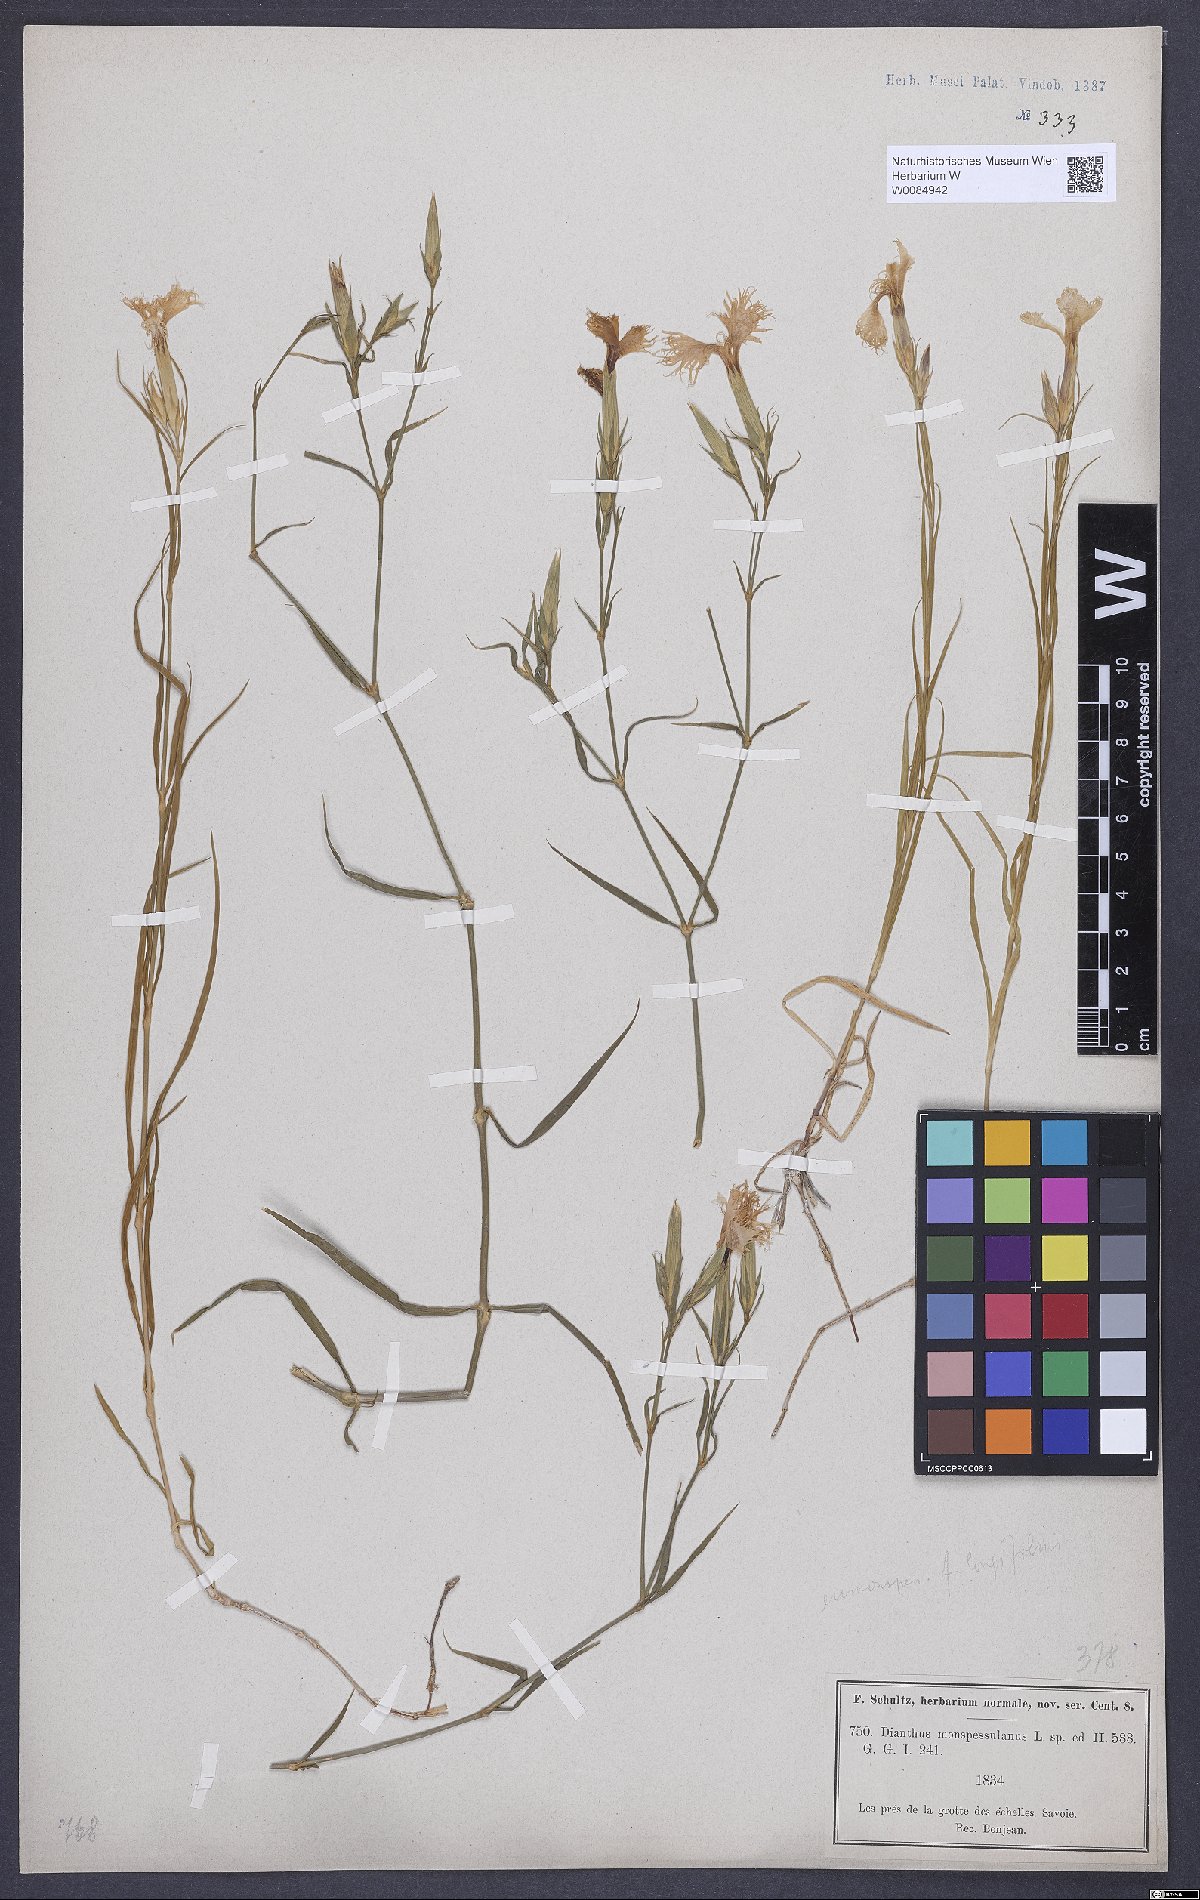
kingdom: Plantae
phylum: Tracheophyta
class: Magnoliopsida
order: Caryophyllales
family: Caryophyllaceae
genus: Dianthus
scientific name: Dianthus hyssopifolius
